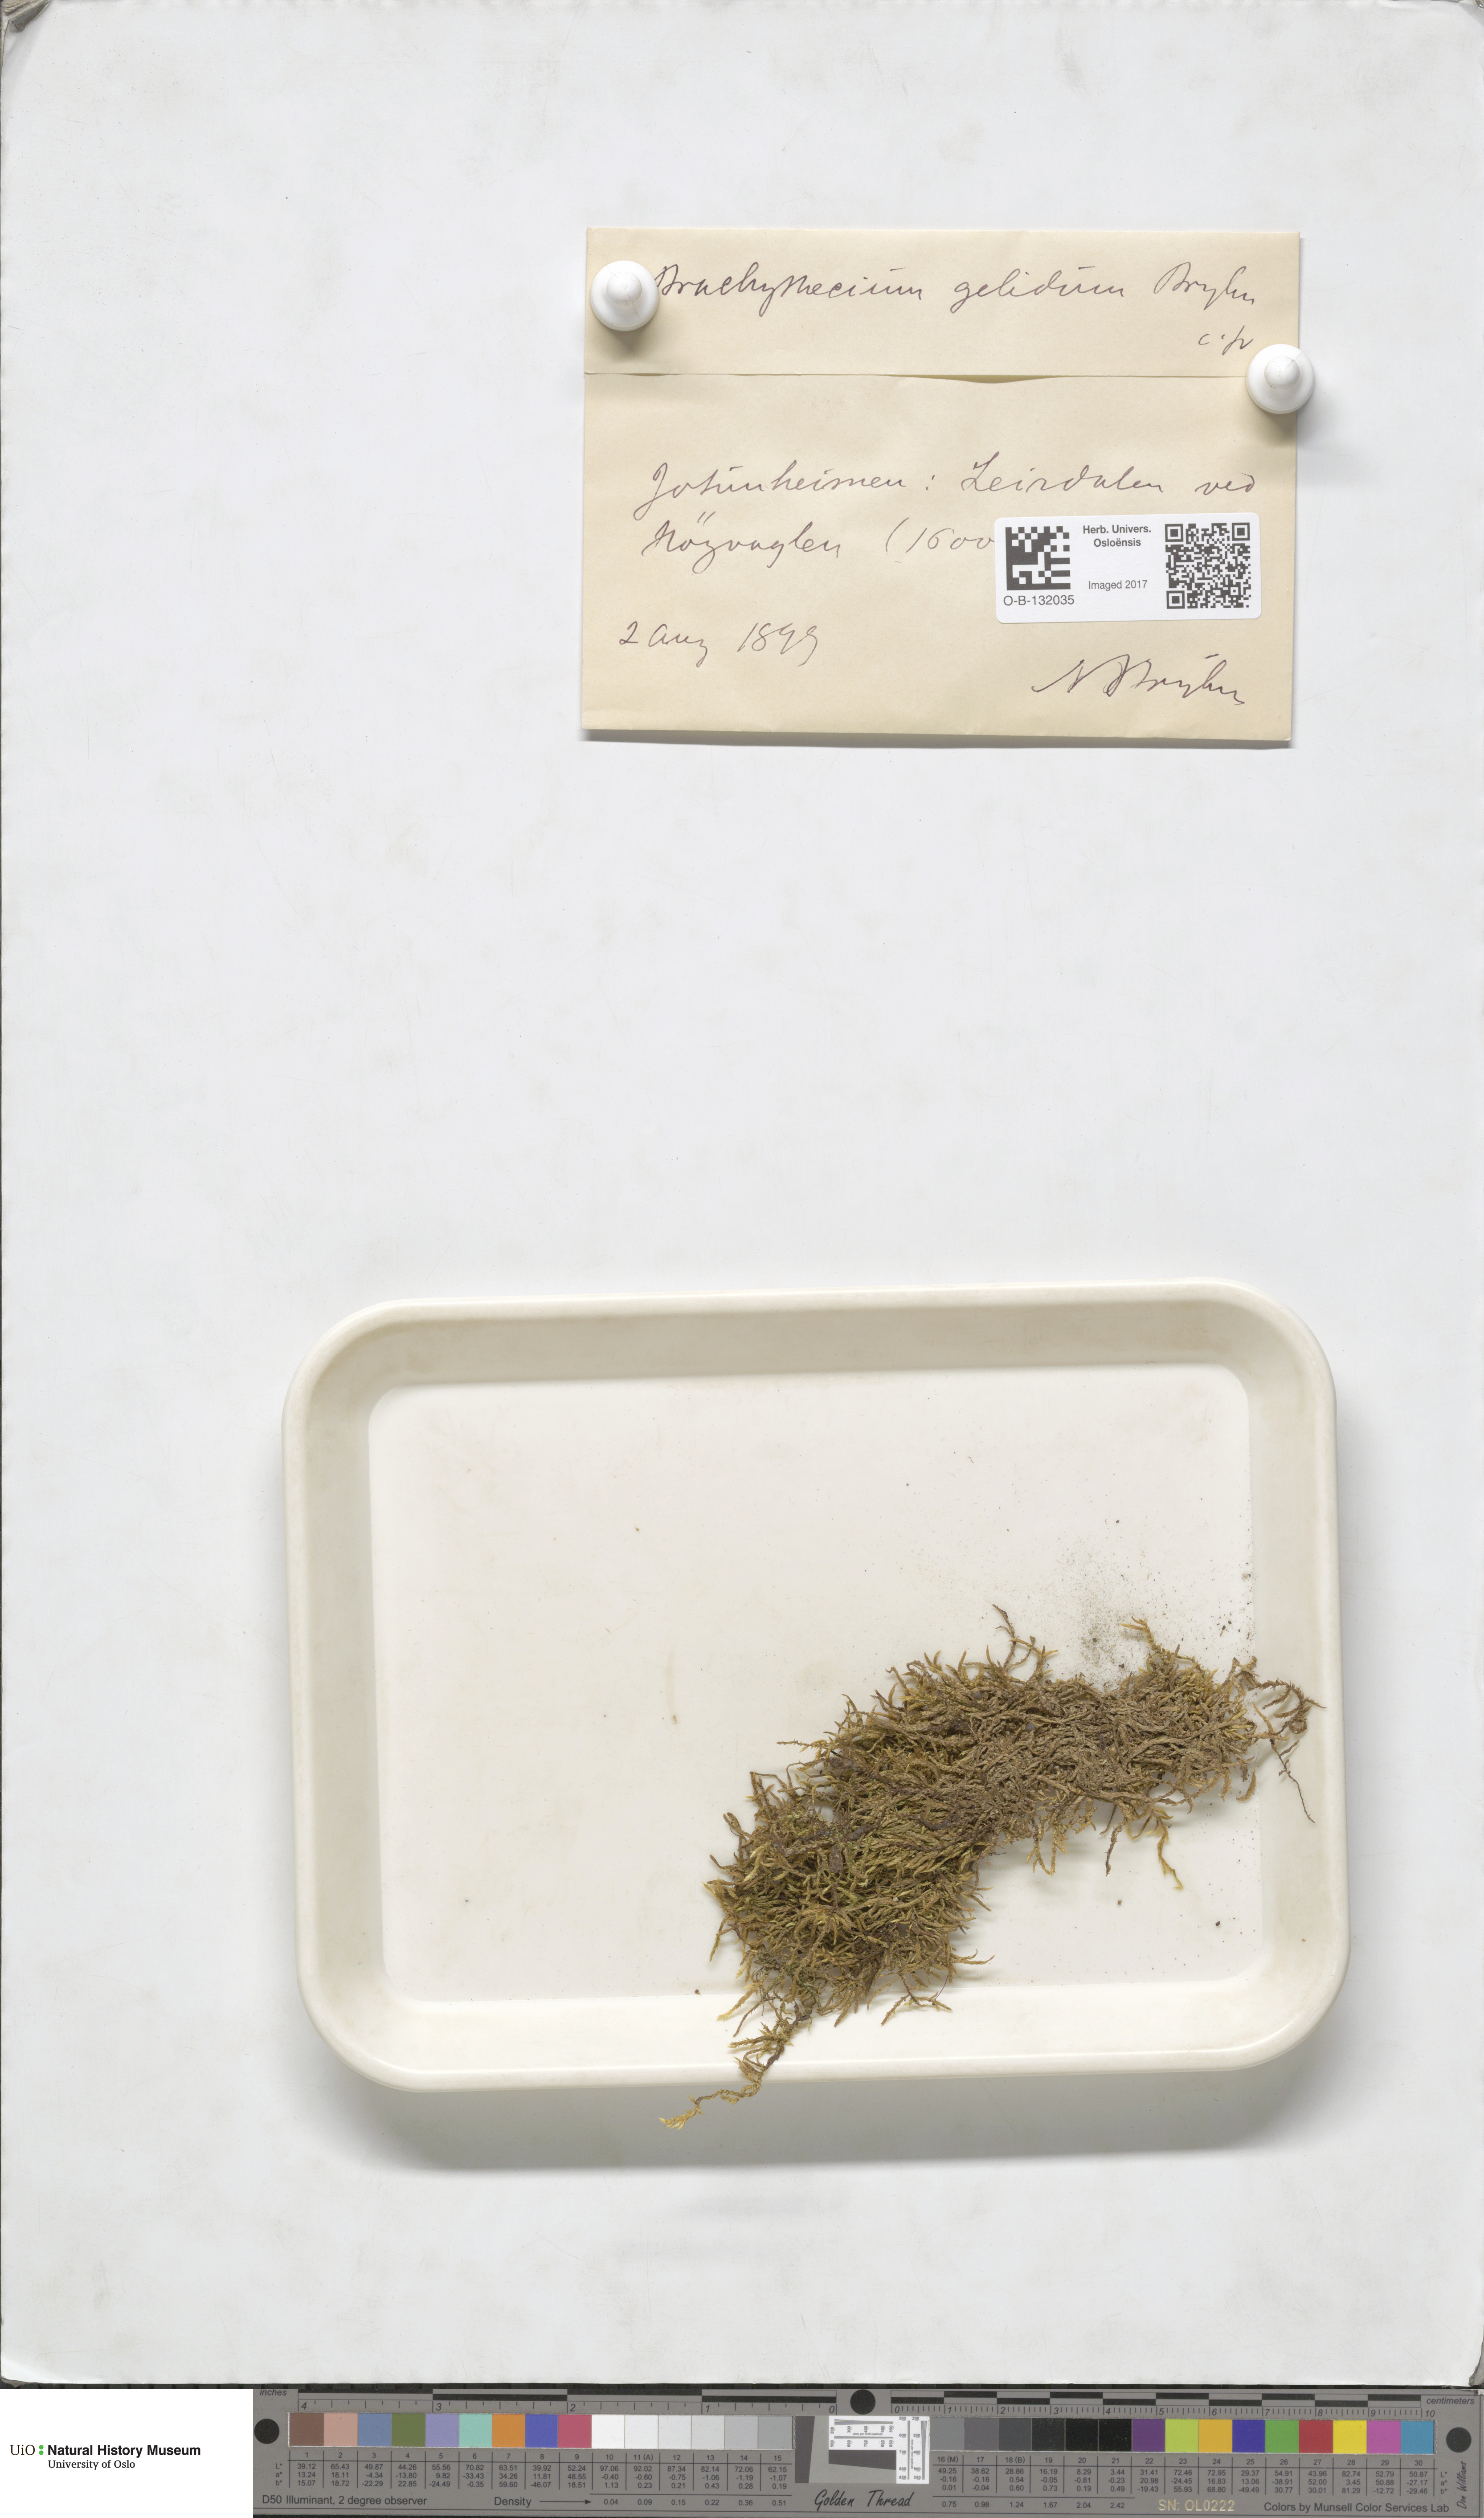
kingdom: Plantae
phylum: Bryophyta
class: Bryopsida
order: Hypnales
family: Brachytheciaceae
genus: Brachythecium
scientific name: Brachythecium erythrorrhizon
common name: Taiga ragged moss
